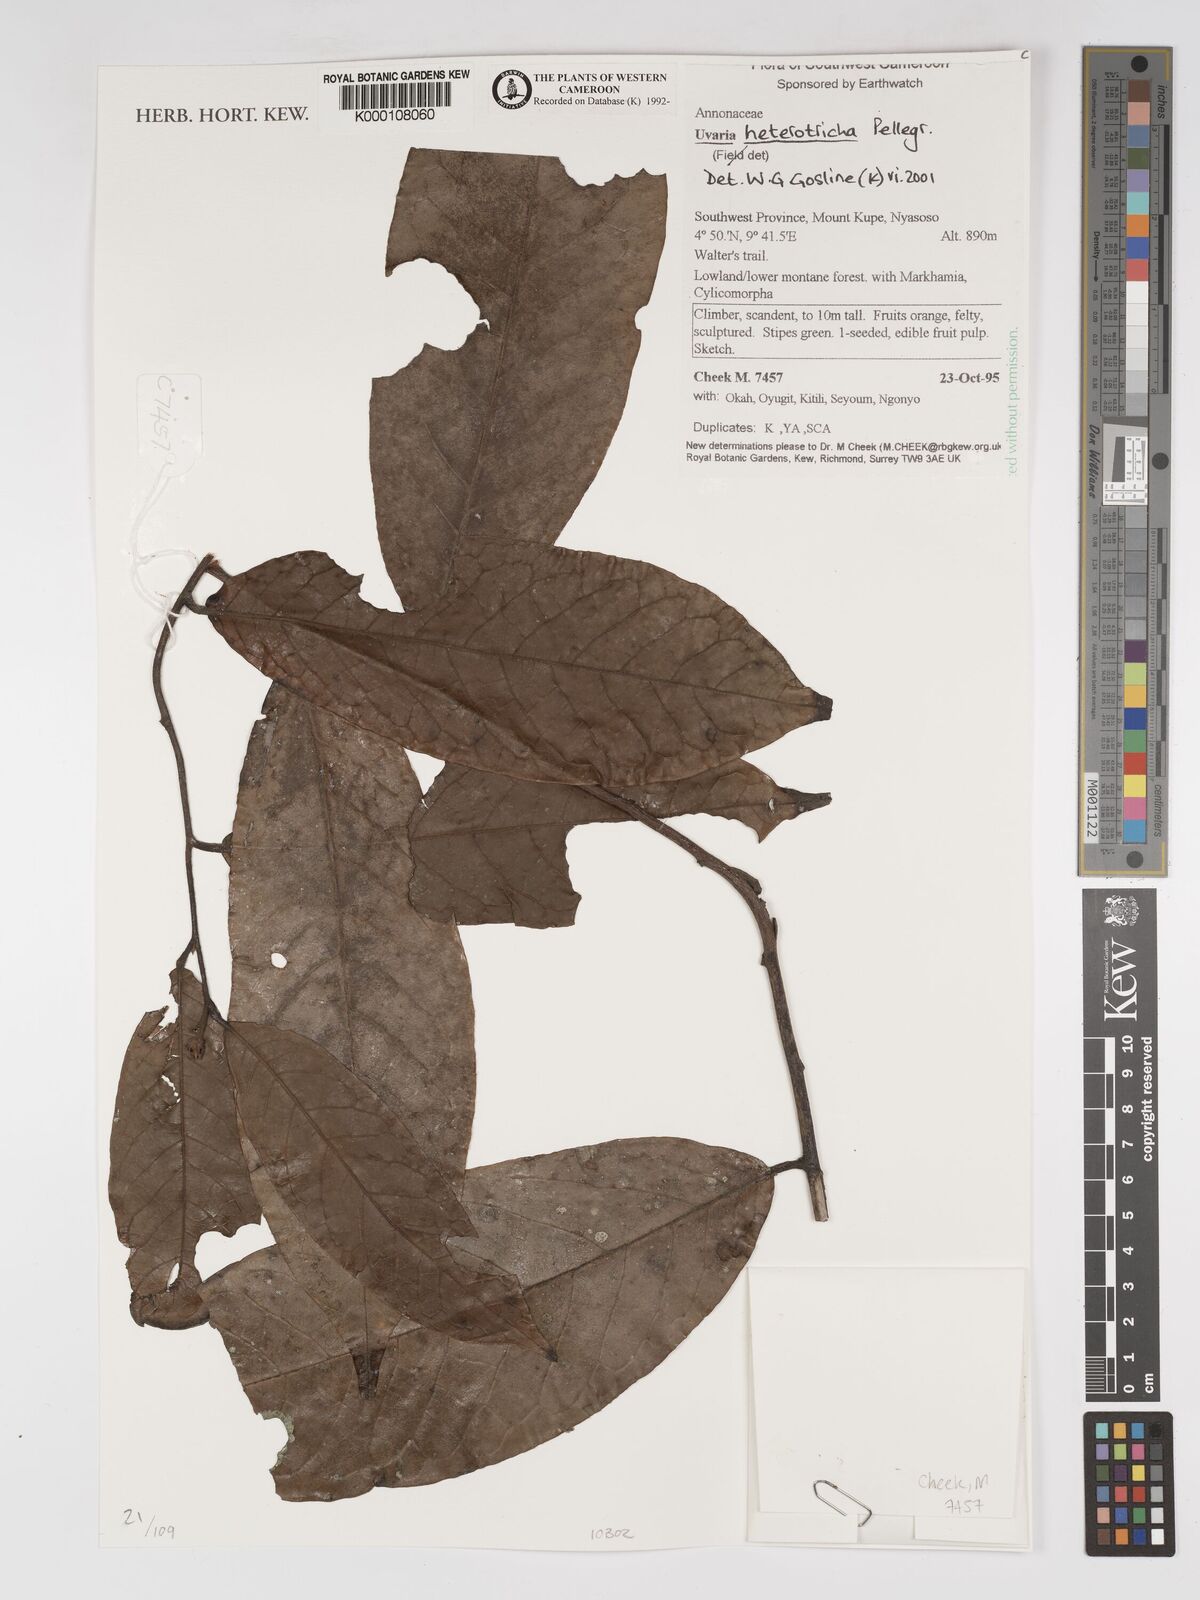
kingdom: Plantae
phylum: Tracheophyta
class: Magnoliopsida
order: Magnoliales
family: Annonaceae
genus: Uvaria
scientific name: Uvaria heterotricha
